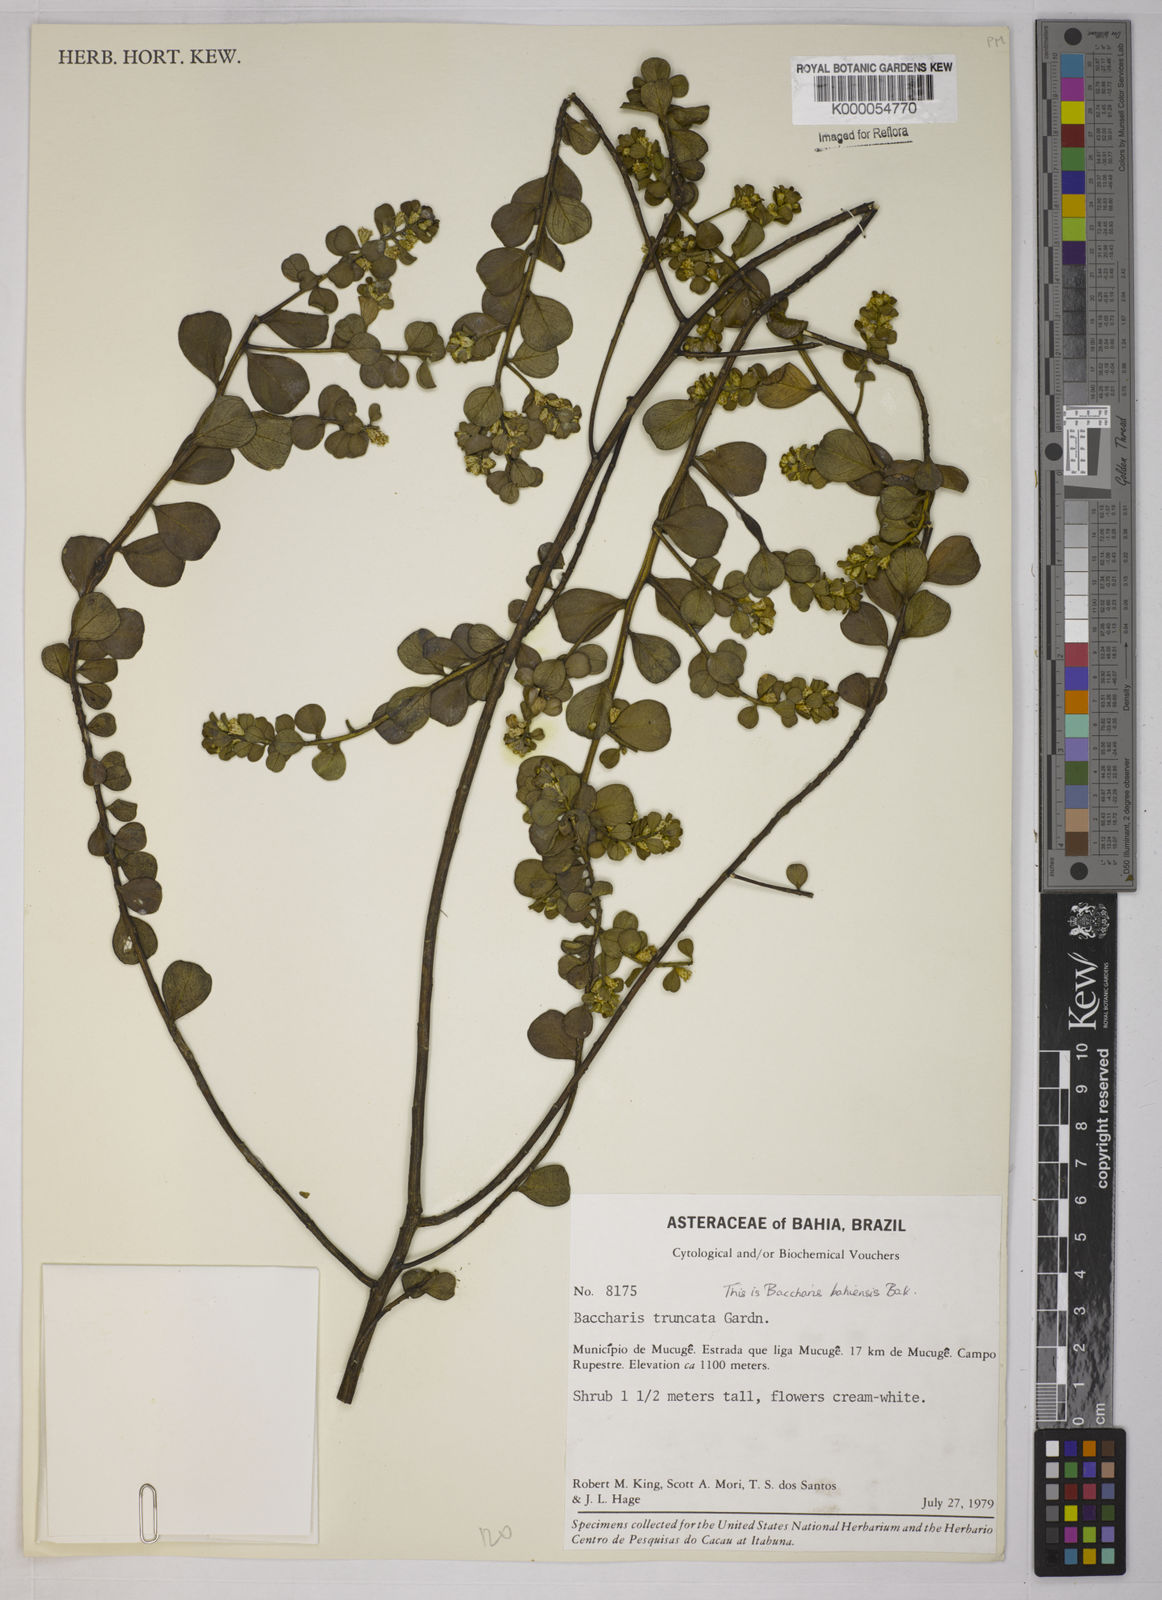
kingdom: Plantae
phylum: Tracheophyta
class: Magnoliopsida
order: Asterales
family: Asteraceae
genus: Baccharis
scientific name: Baccharis
